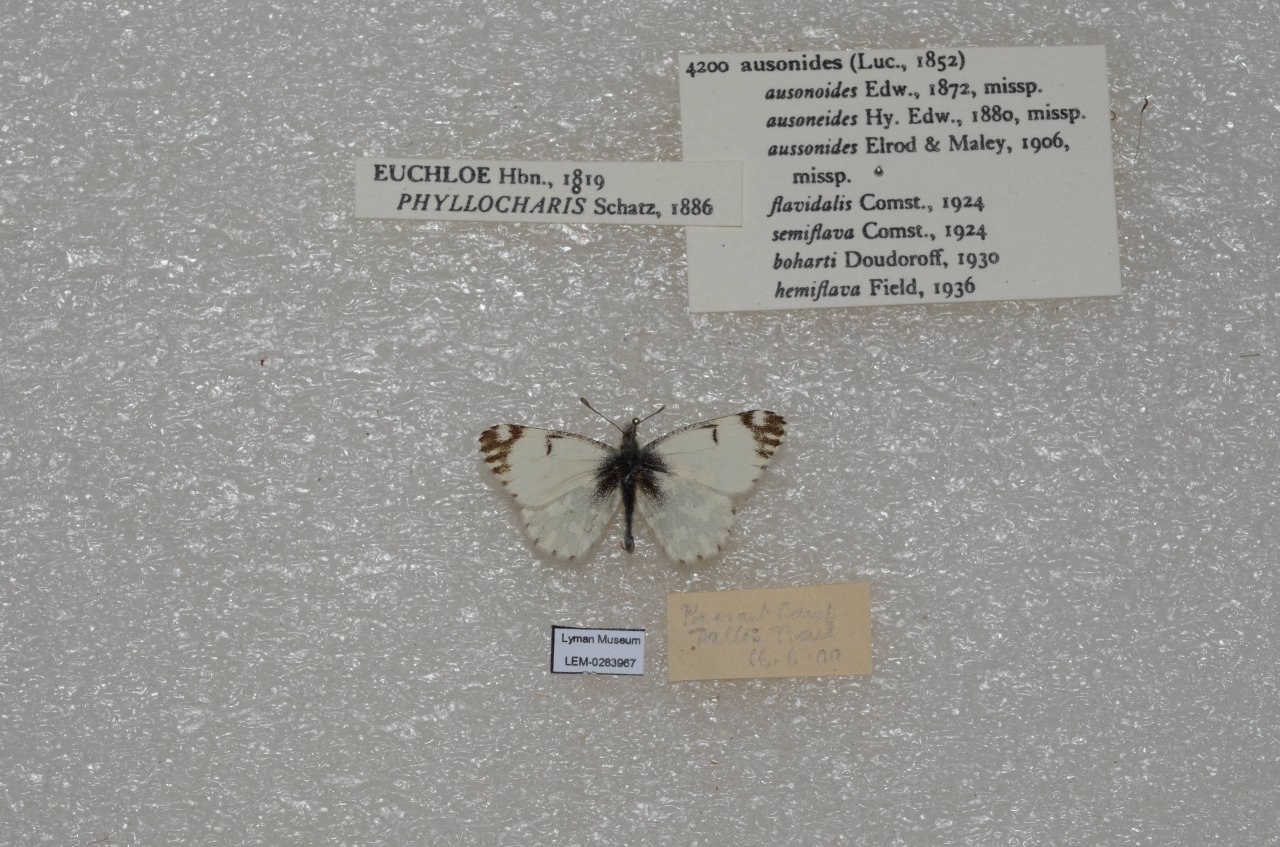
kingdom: Animalia
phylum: Arthropoda
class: Insecta
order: Lepidoptera
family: Pieridae
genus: Euchloe
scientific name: Euchloe ausonides
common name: Large Marble
